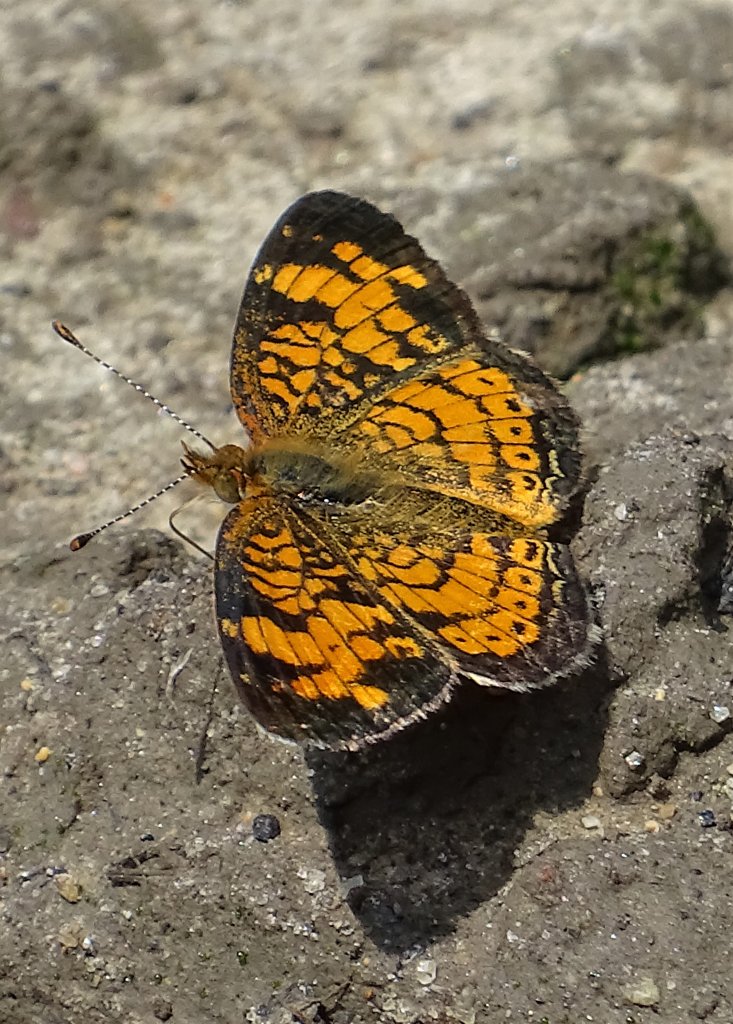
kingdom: Animalia
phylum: Arthropoda
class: Insecta
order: Lepidoptera
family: Nymphalidae
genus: Phyciodes
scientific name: Phyciodes tharos
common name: Pearl Crescent
